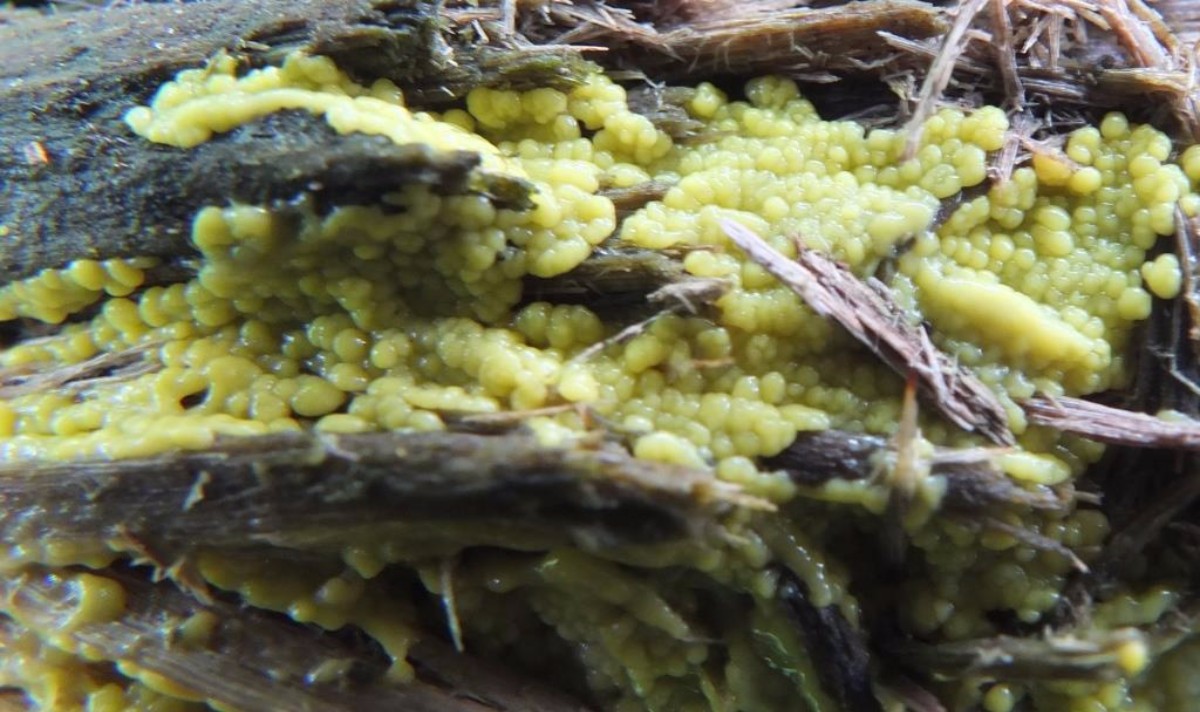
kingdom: Protozoa
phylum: Mycetozoa
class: Protosteliomycetes
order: Ceratiomyxales
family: Ceratiomyxaceae
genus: Ceratiomyxa
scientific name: Ceratiomyxa fruticulosa
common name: Honeycomb coral slime mold
